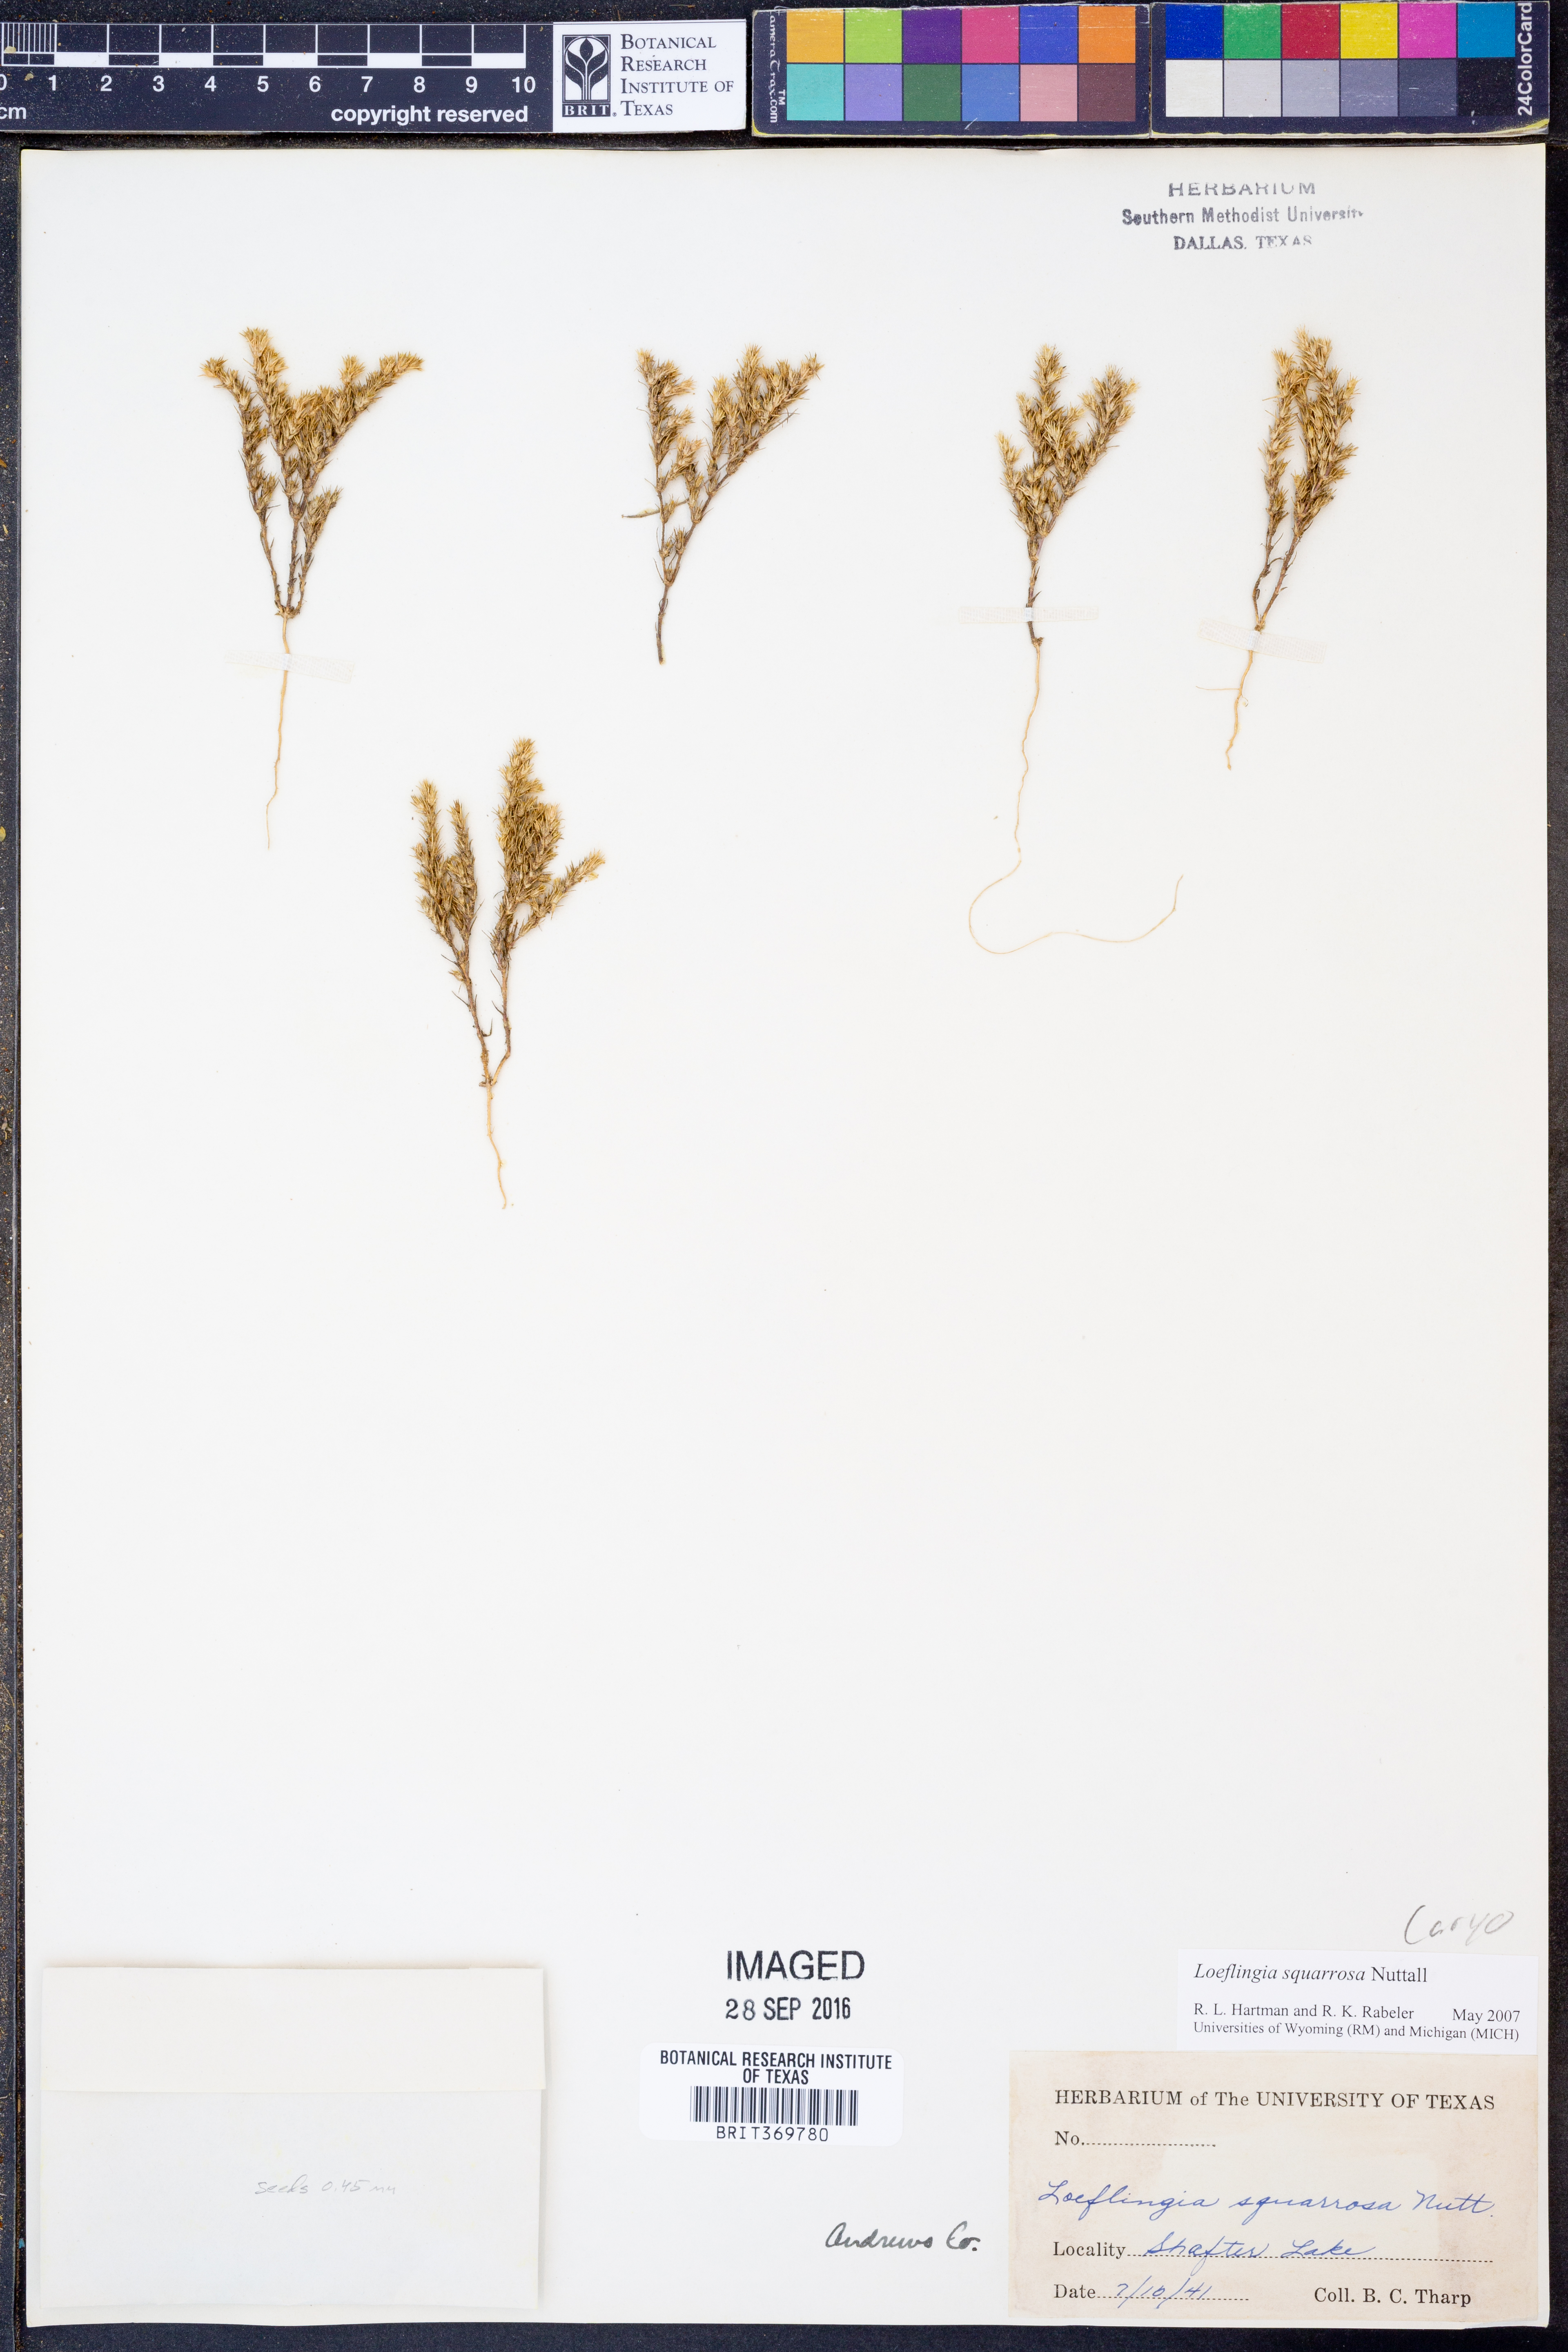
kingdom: Plantae
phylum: Tracheophyta
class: Magnoliopsida
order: Caryophyllales
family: Caryophyllaceae
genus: Loeflingia
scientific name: Loeflingia squarrosa
